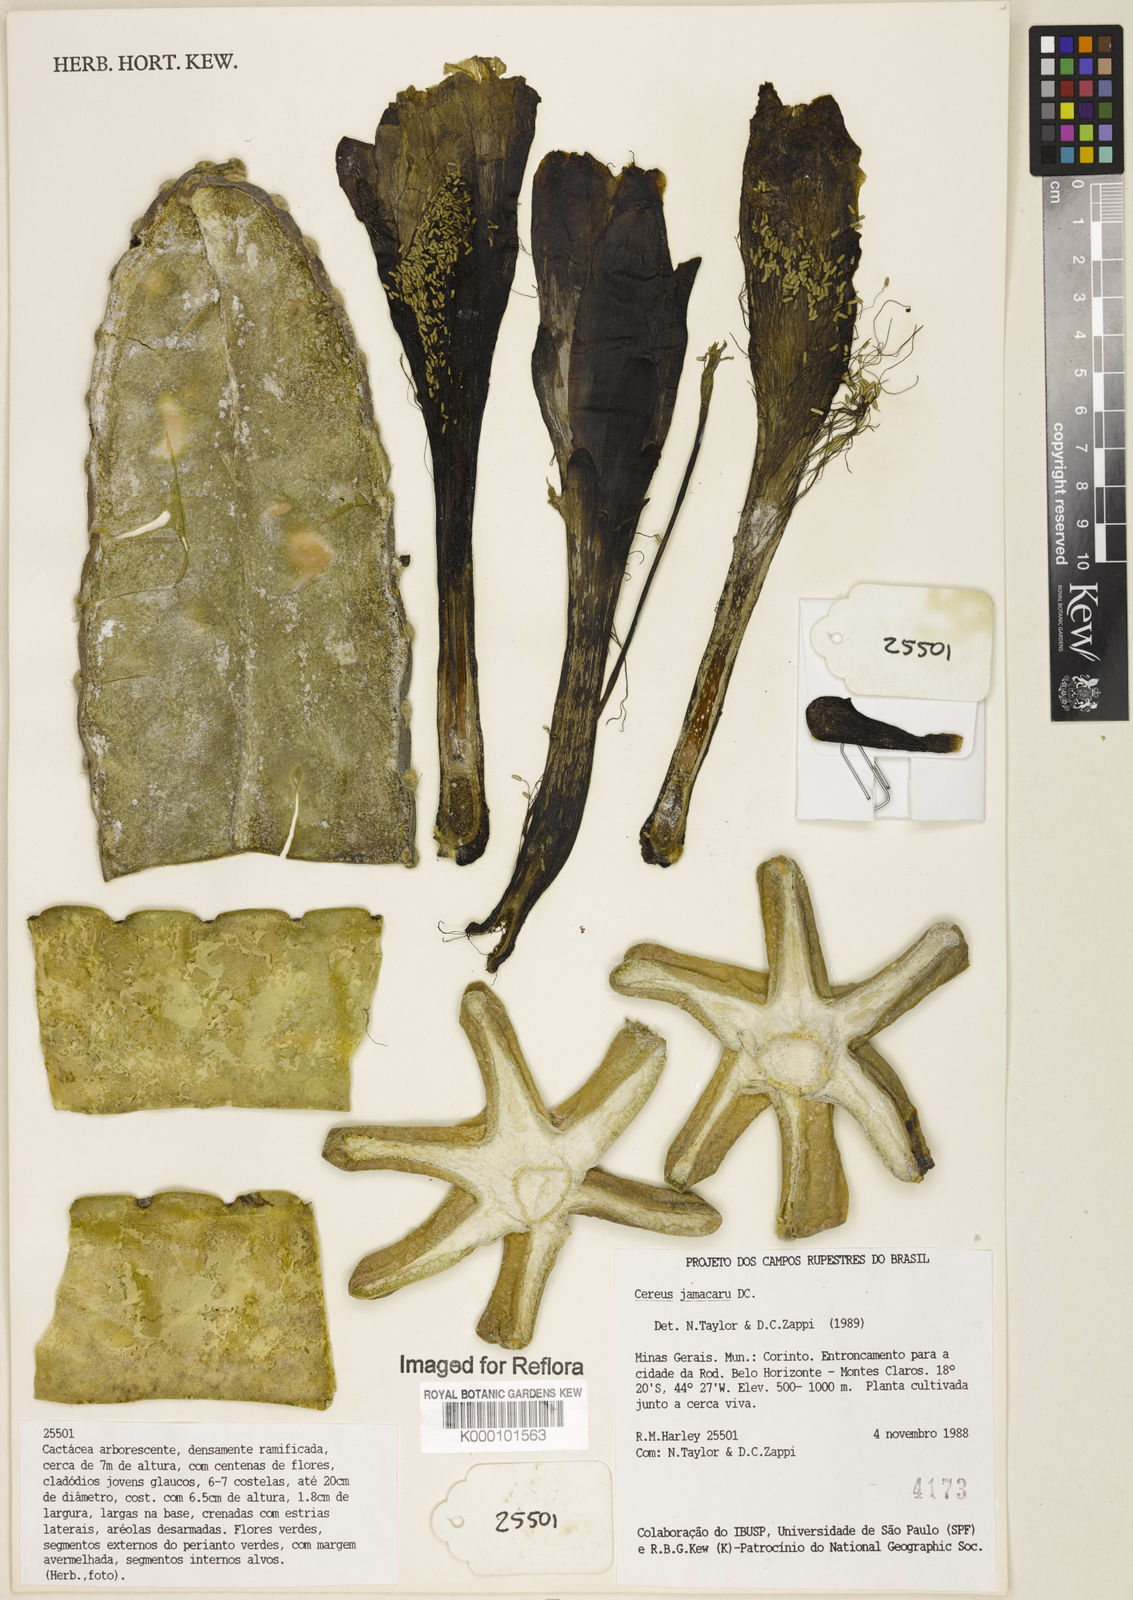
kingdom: Plantae
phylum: Tracheophyta
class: Magnoliopsida
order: Caryophyllales
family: Cactaceae
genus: Cereus
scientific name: Cereus jamacaru
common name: Queen-of-the-night
